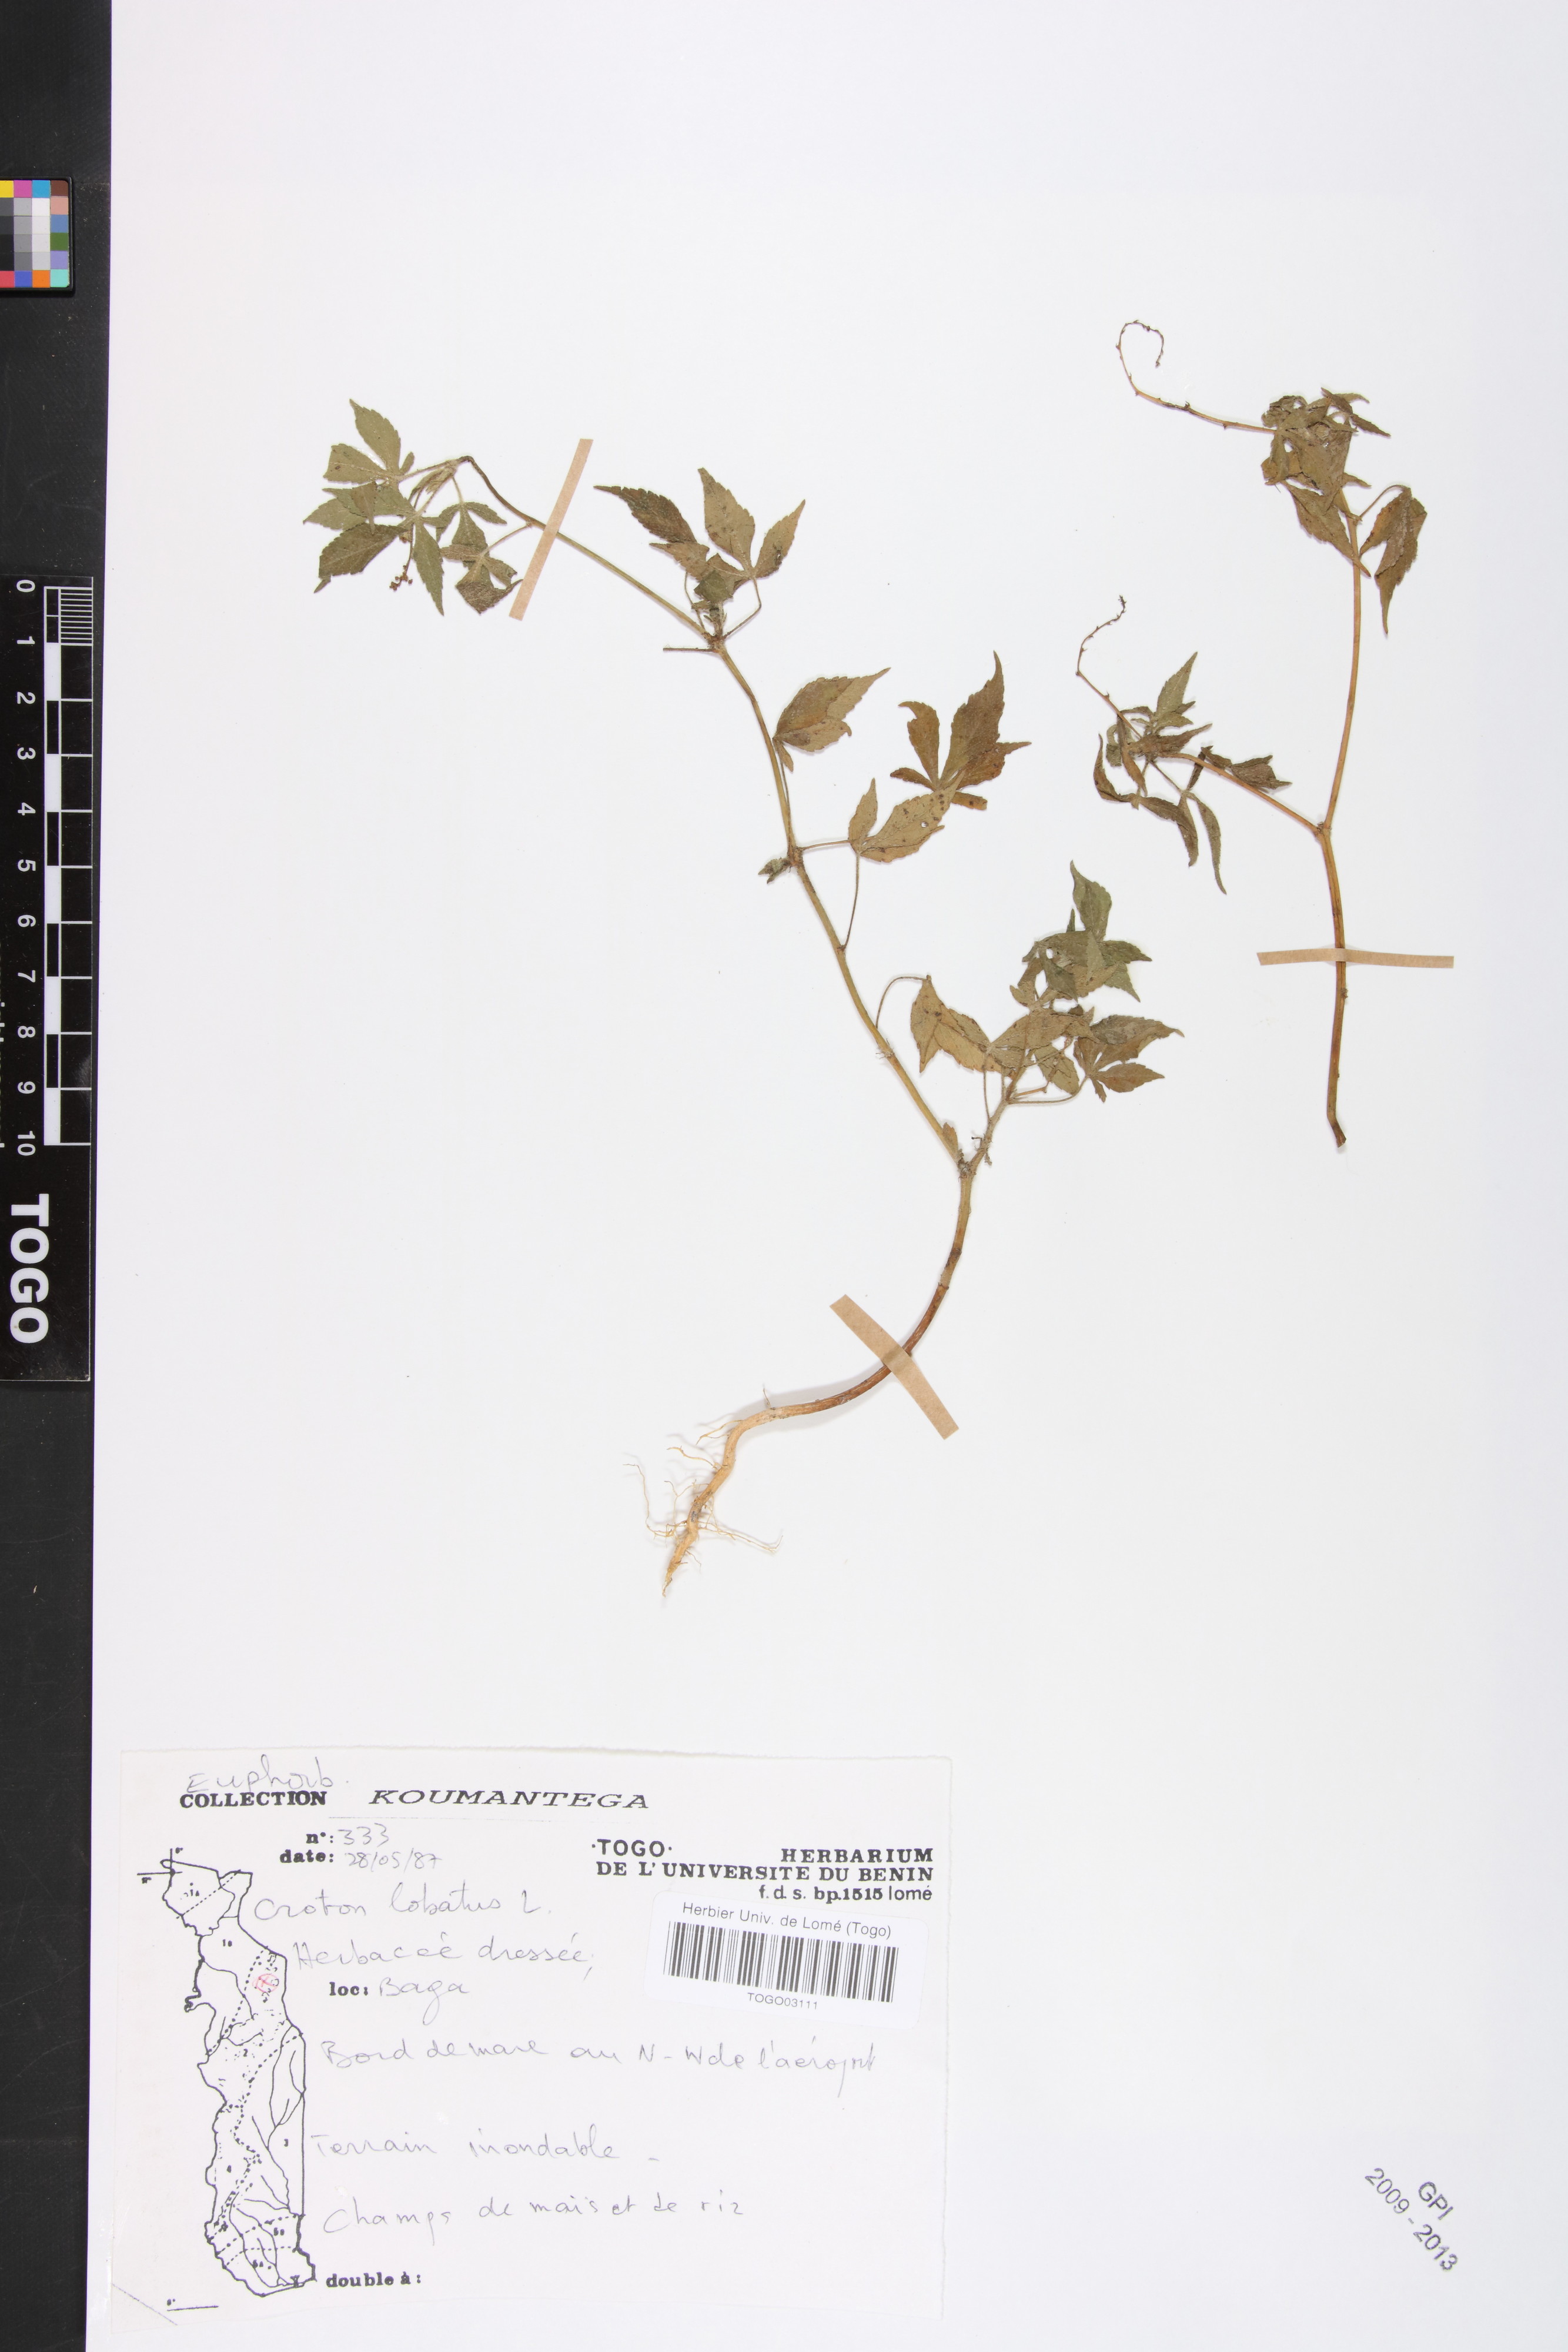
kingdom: Plantae
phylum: Tracheophyta
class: Magnoliopsida
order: Malpighiales
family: Euphorbiaceae
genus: Astraea
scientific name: Astraea lobata
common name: Lobed croton
